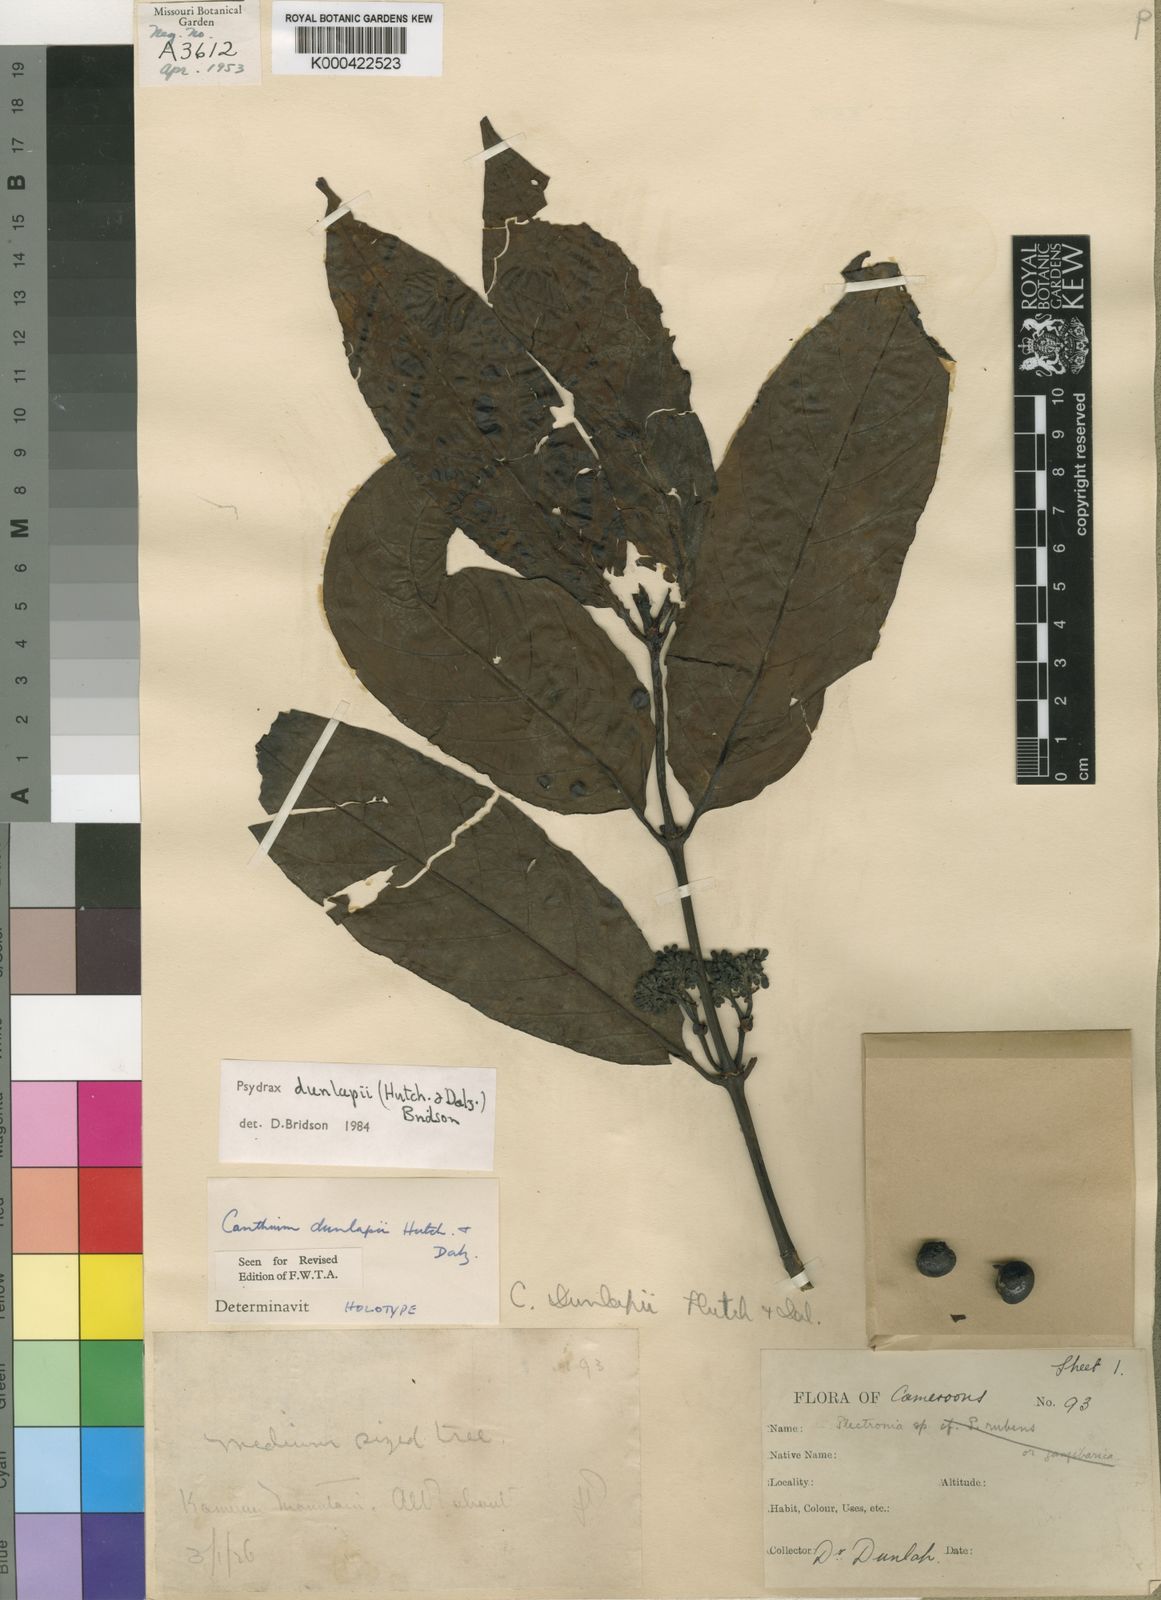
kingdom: Plantae
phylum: Tracheophyta
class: Magnoliopsida
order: Gentianales
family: Rubiaceae
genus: Psydrax
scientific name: Psydrax dunlapii
